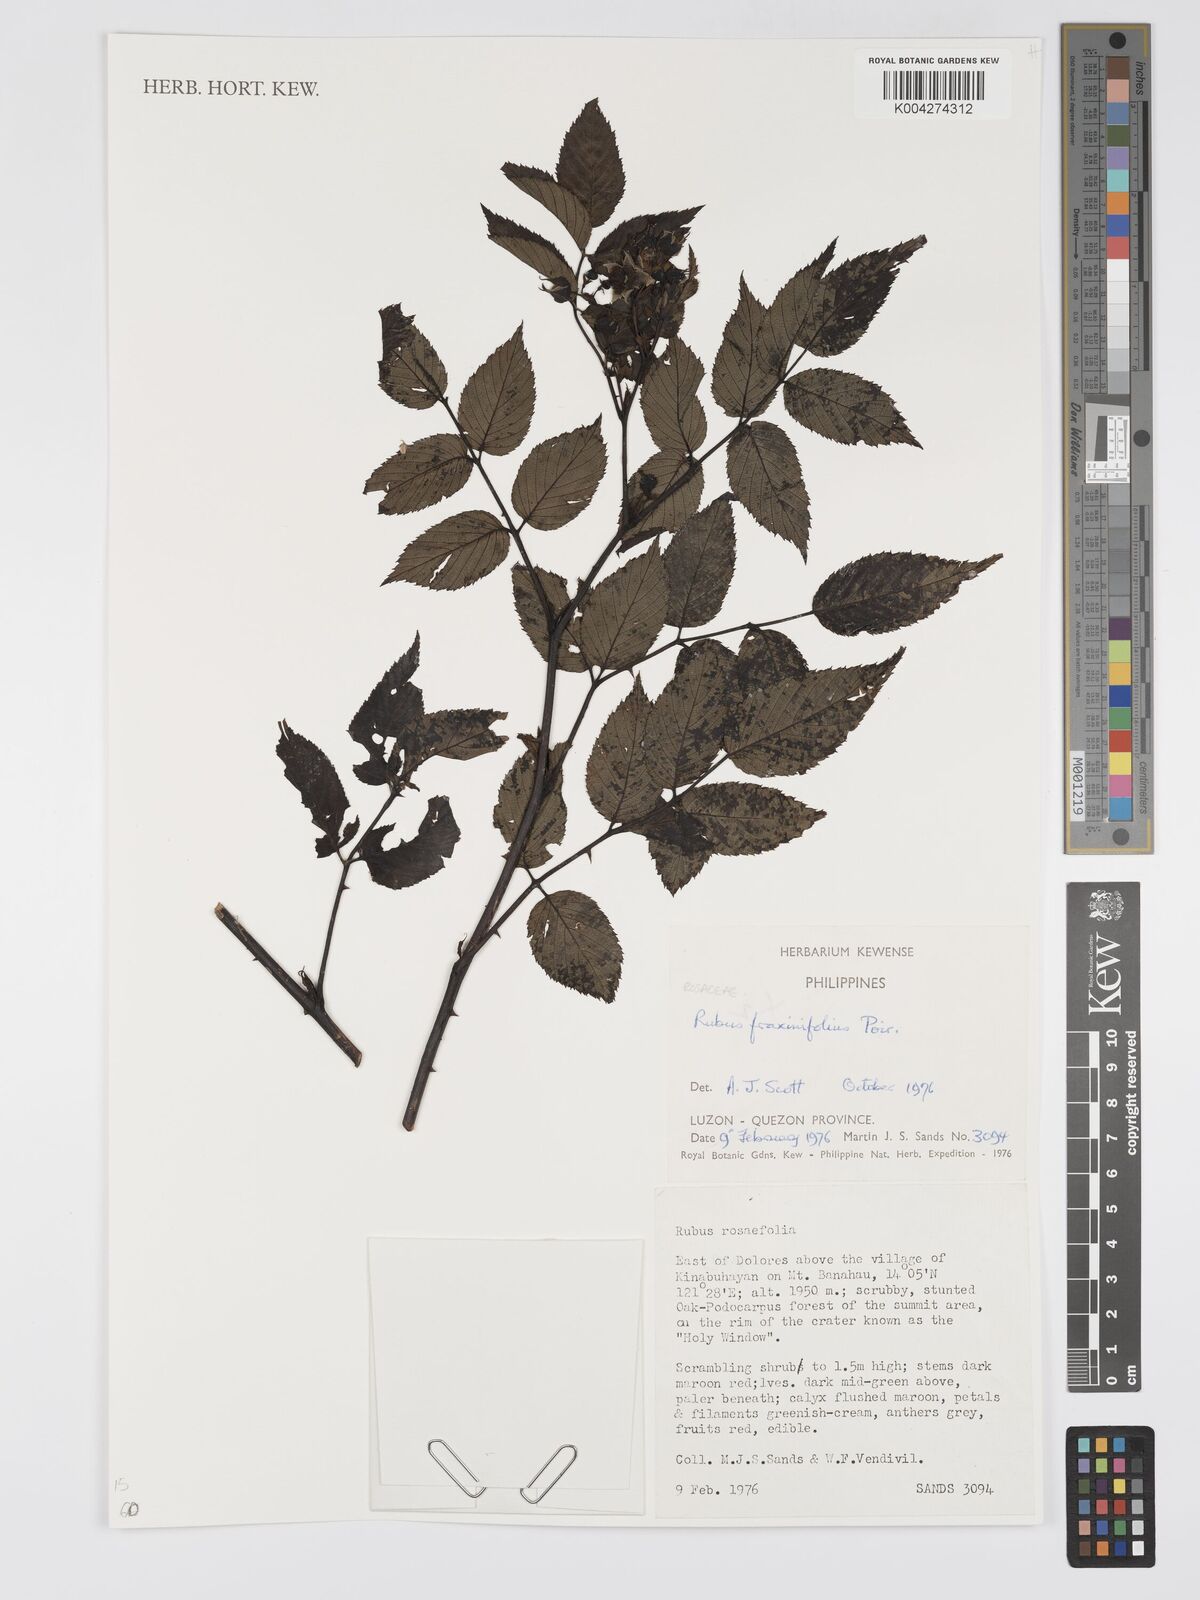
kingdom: Plantae
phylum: Tracheophyta
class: Magnoliopsida
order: Rosales
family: Rosaceae
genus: Rubus
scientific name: Rubus fraxinifolius
